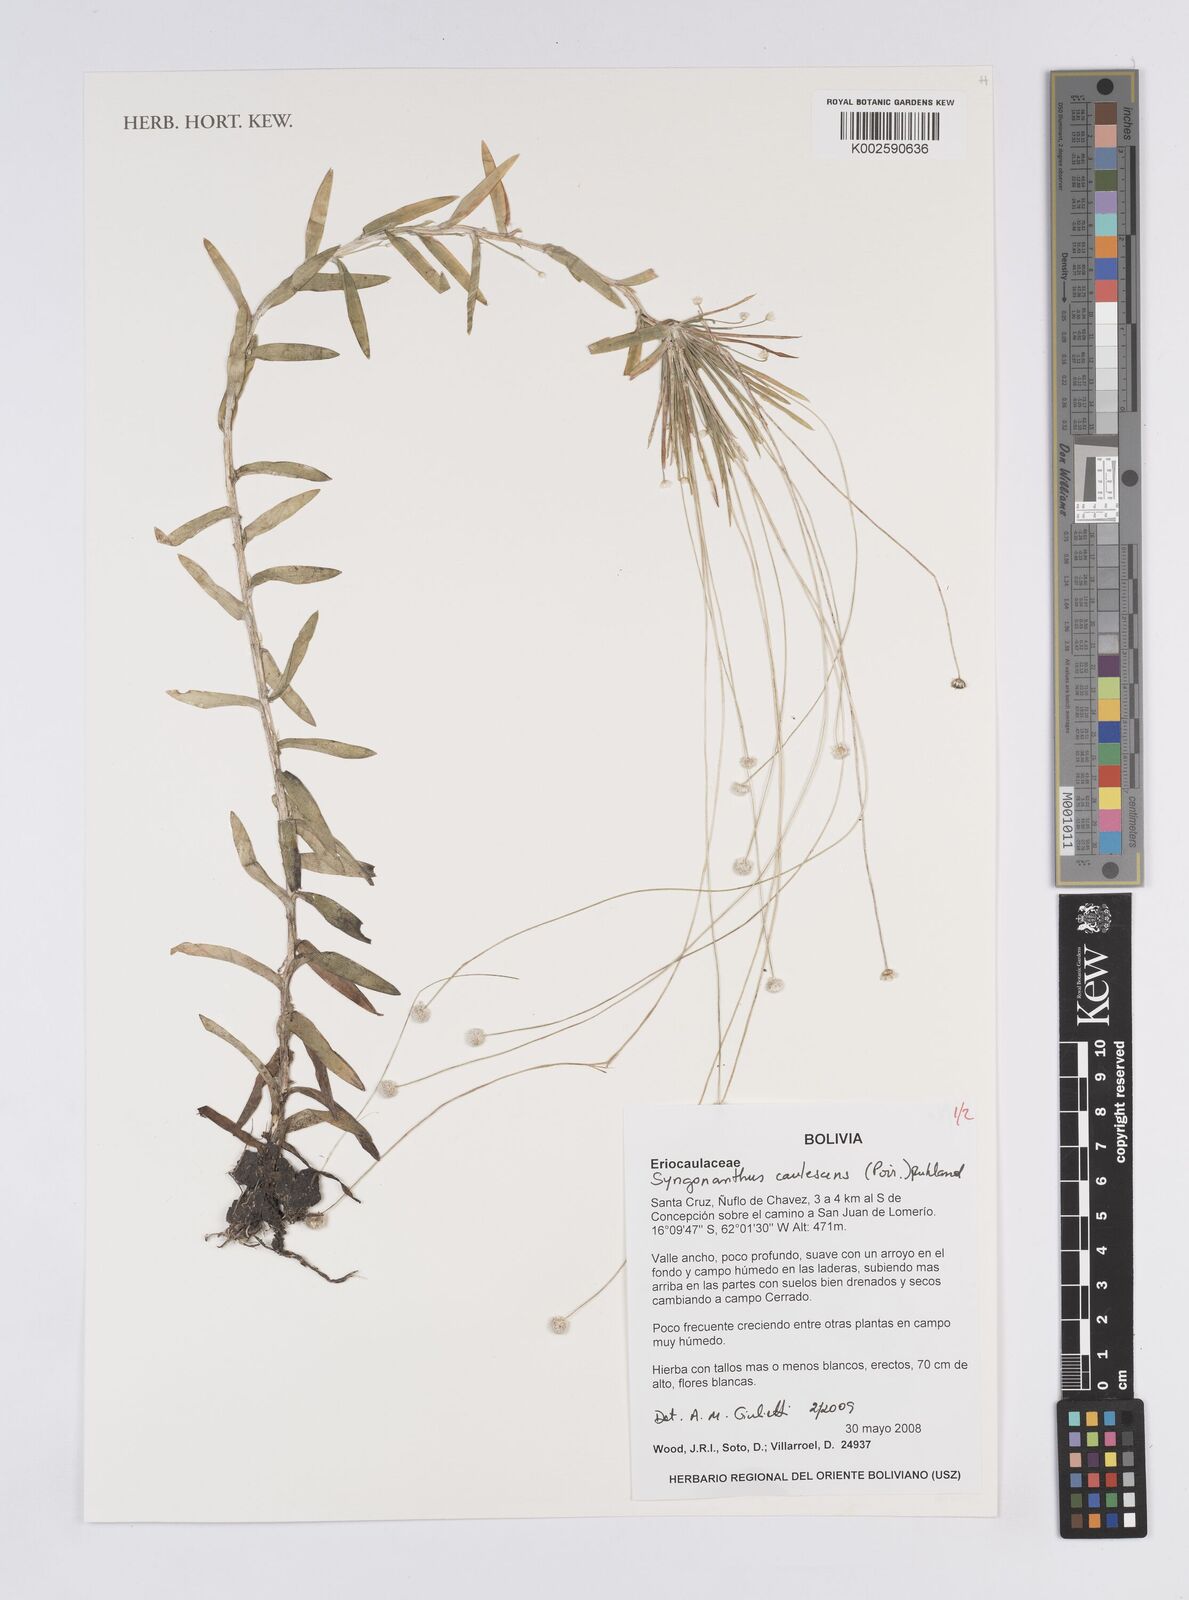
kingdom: Plantae
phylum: Tracheophyta
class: Liliopsida
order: Poales
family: Eriocaulaceae
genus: Syngonanthus
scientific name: Syngonanthus caulescens
